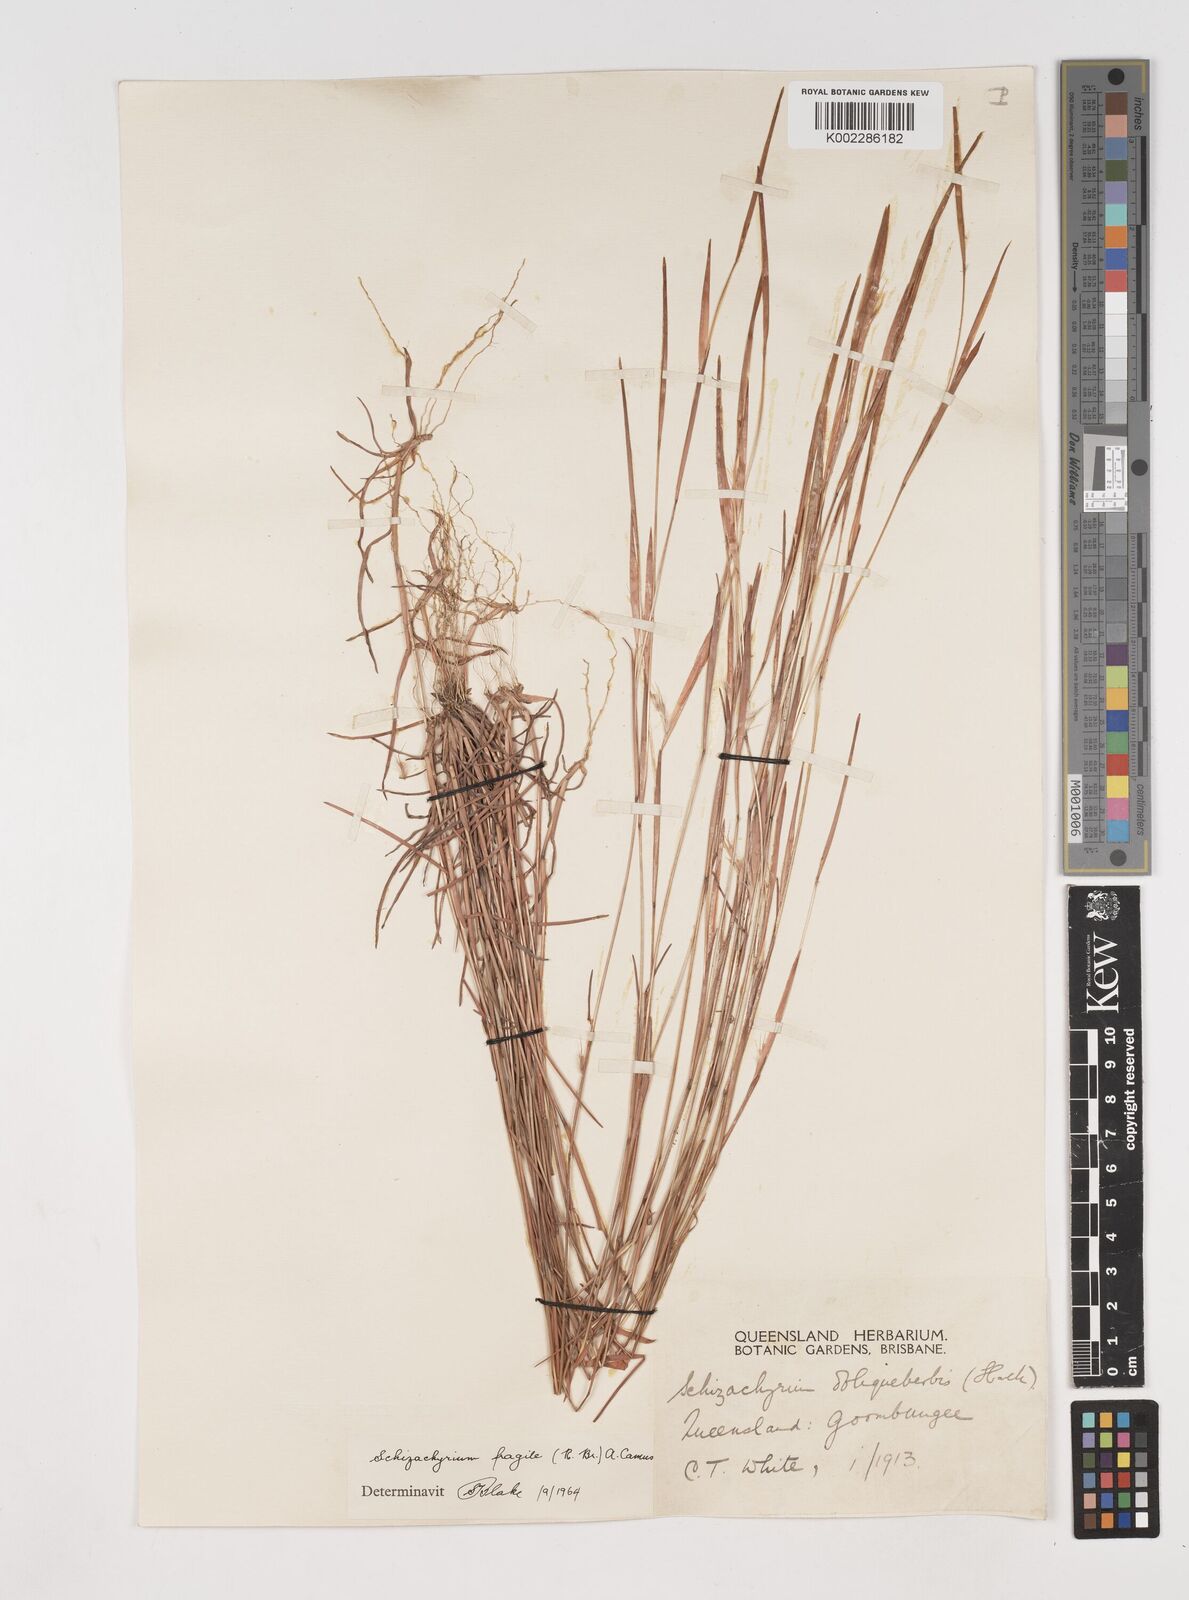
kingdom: Plantae
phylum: Tracheophyta
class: Liliopsida
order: Poales
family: Poaceae
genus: Schizachyrium
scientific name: Schizachyrium fragile
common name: Red spathe grass
